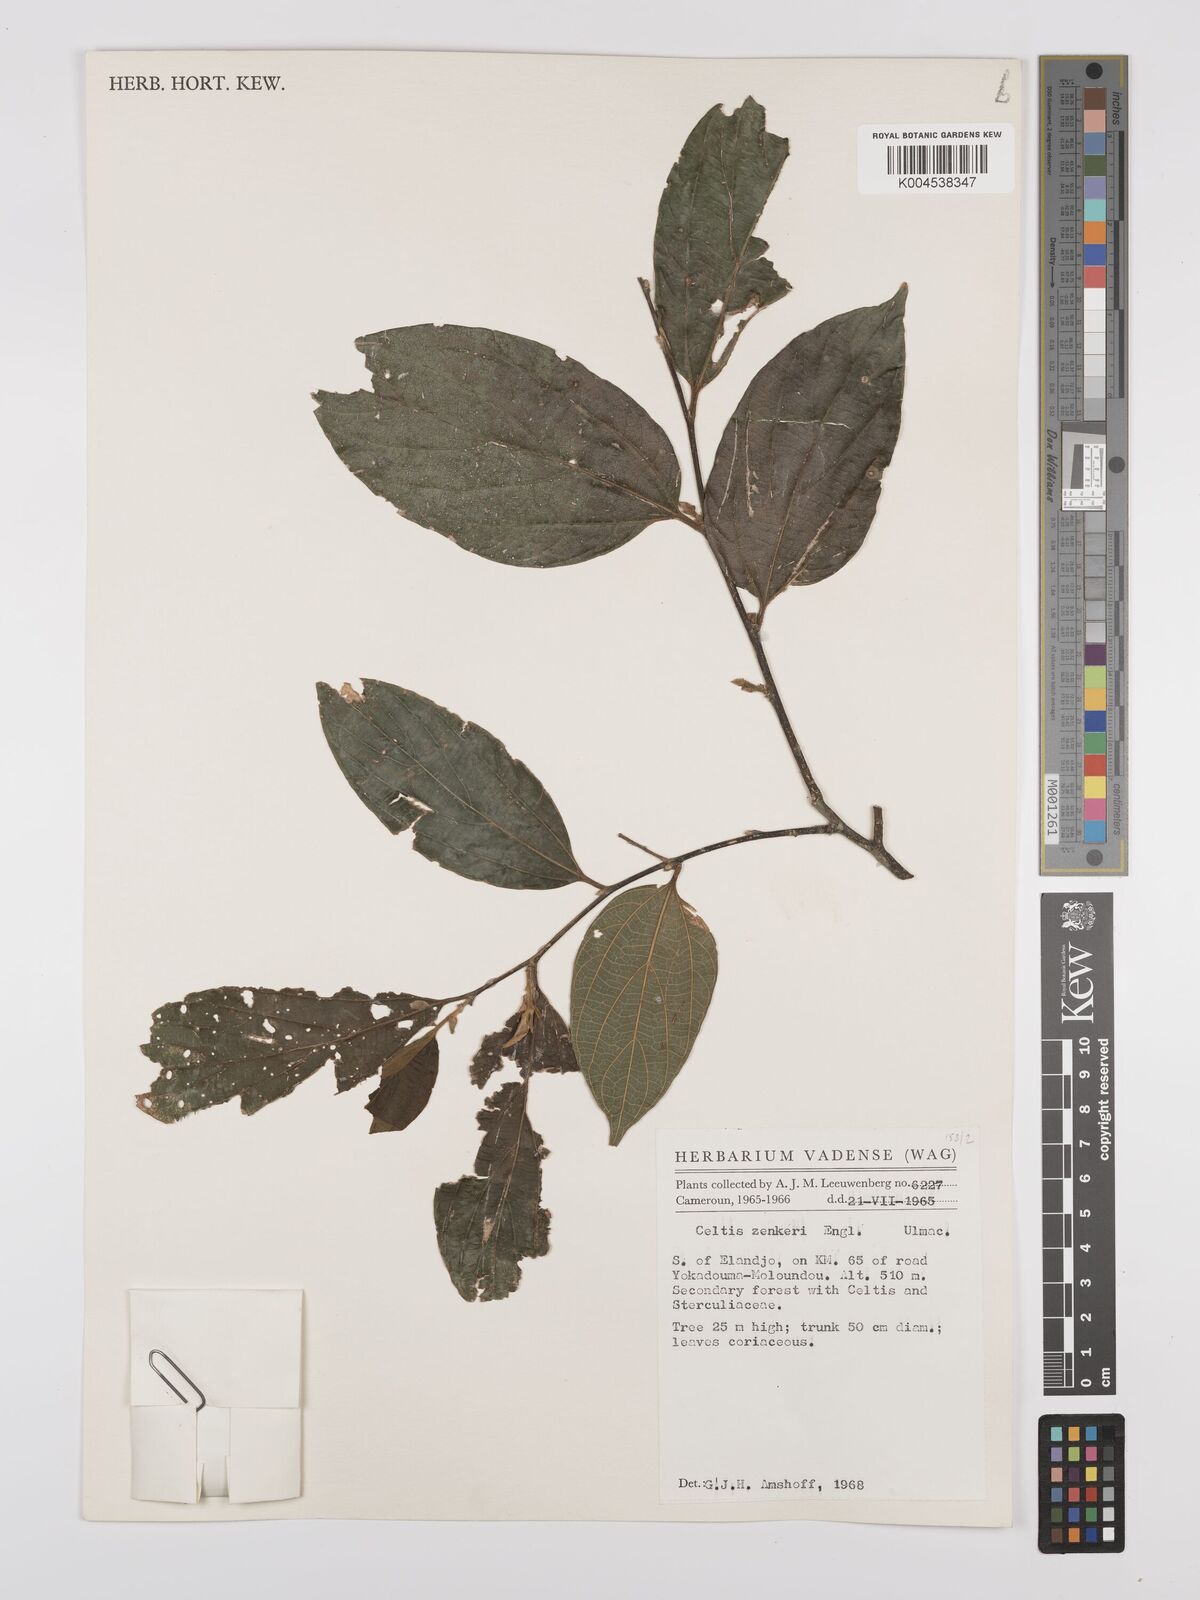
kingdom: Plantae
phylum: Tracheophyta
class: Magnoliopsida
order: Rosales
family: Cannabaceae
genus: Celtis
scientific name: Celtis zenkeri
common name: African celtis
